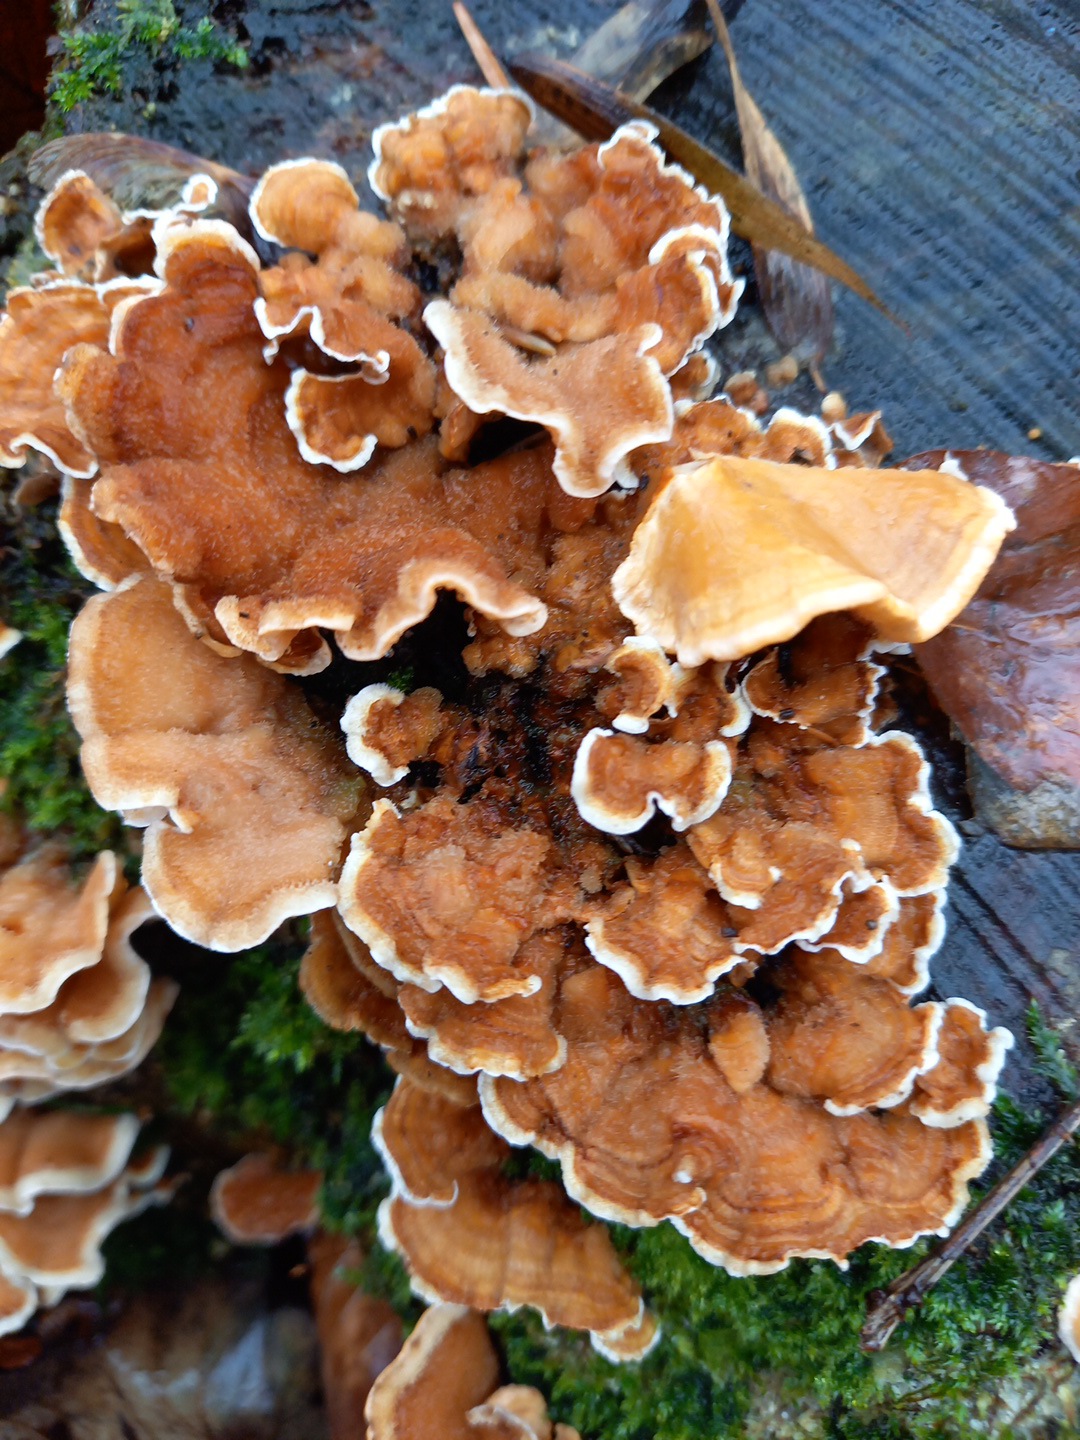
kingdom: Fungi
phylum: Basidiomycota
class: Agaricomycetes
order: Russulales
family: Stereaceae
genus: Stereum
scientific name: Stereum hirsutum
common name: håret lædersvamp
